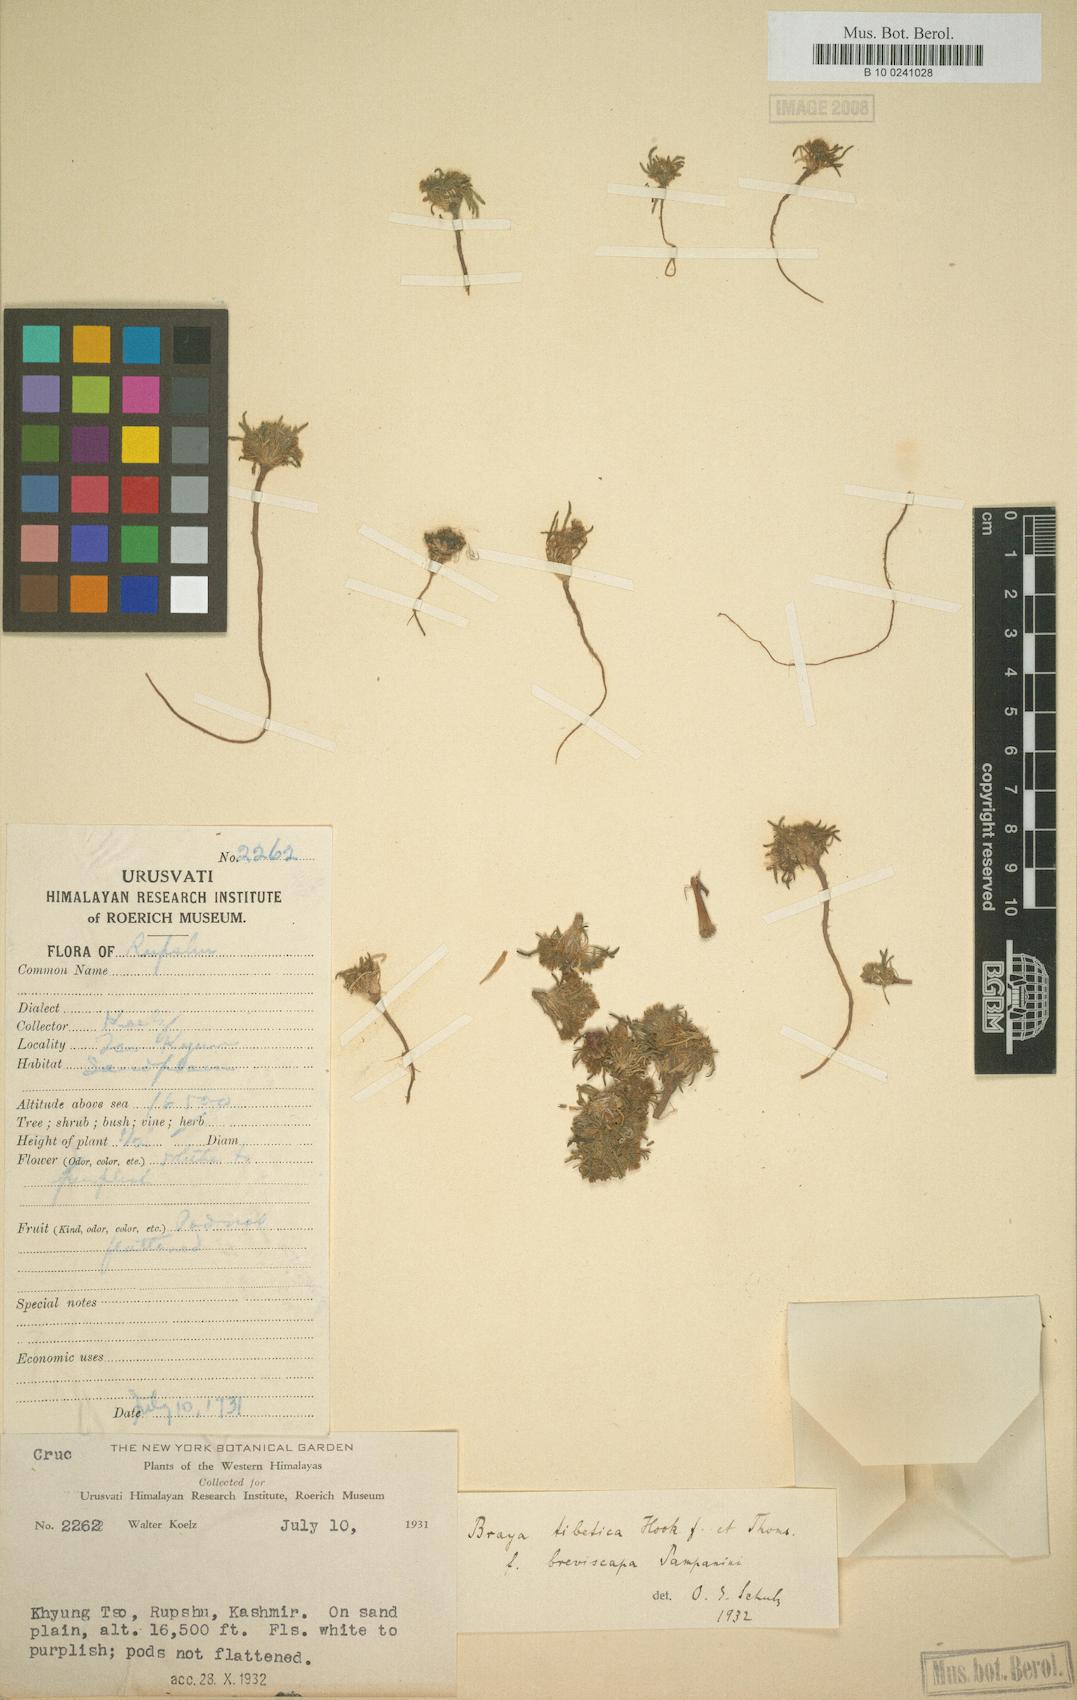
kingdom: Plantae
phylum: Tracheophyta
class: Magnoliopsida
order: Brassicales
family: Brassicaceae
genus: Braya
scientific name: Braya rosea
